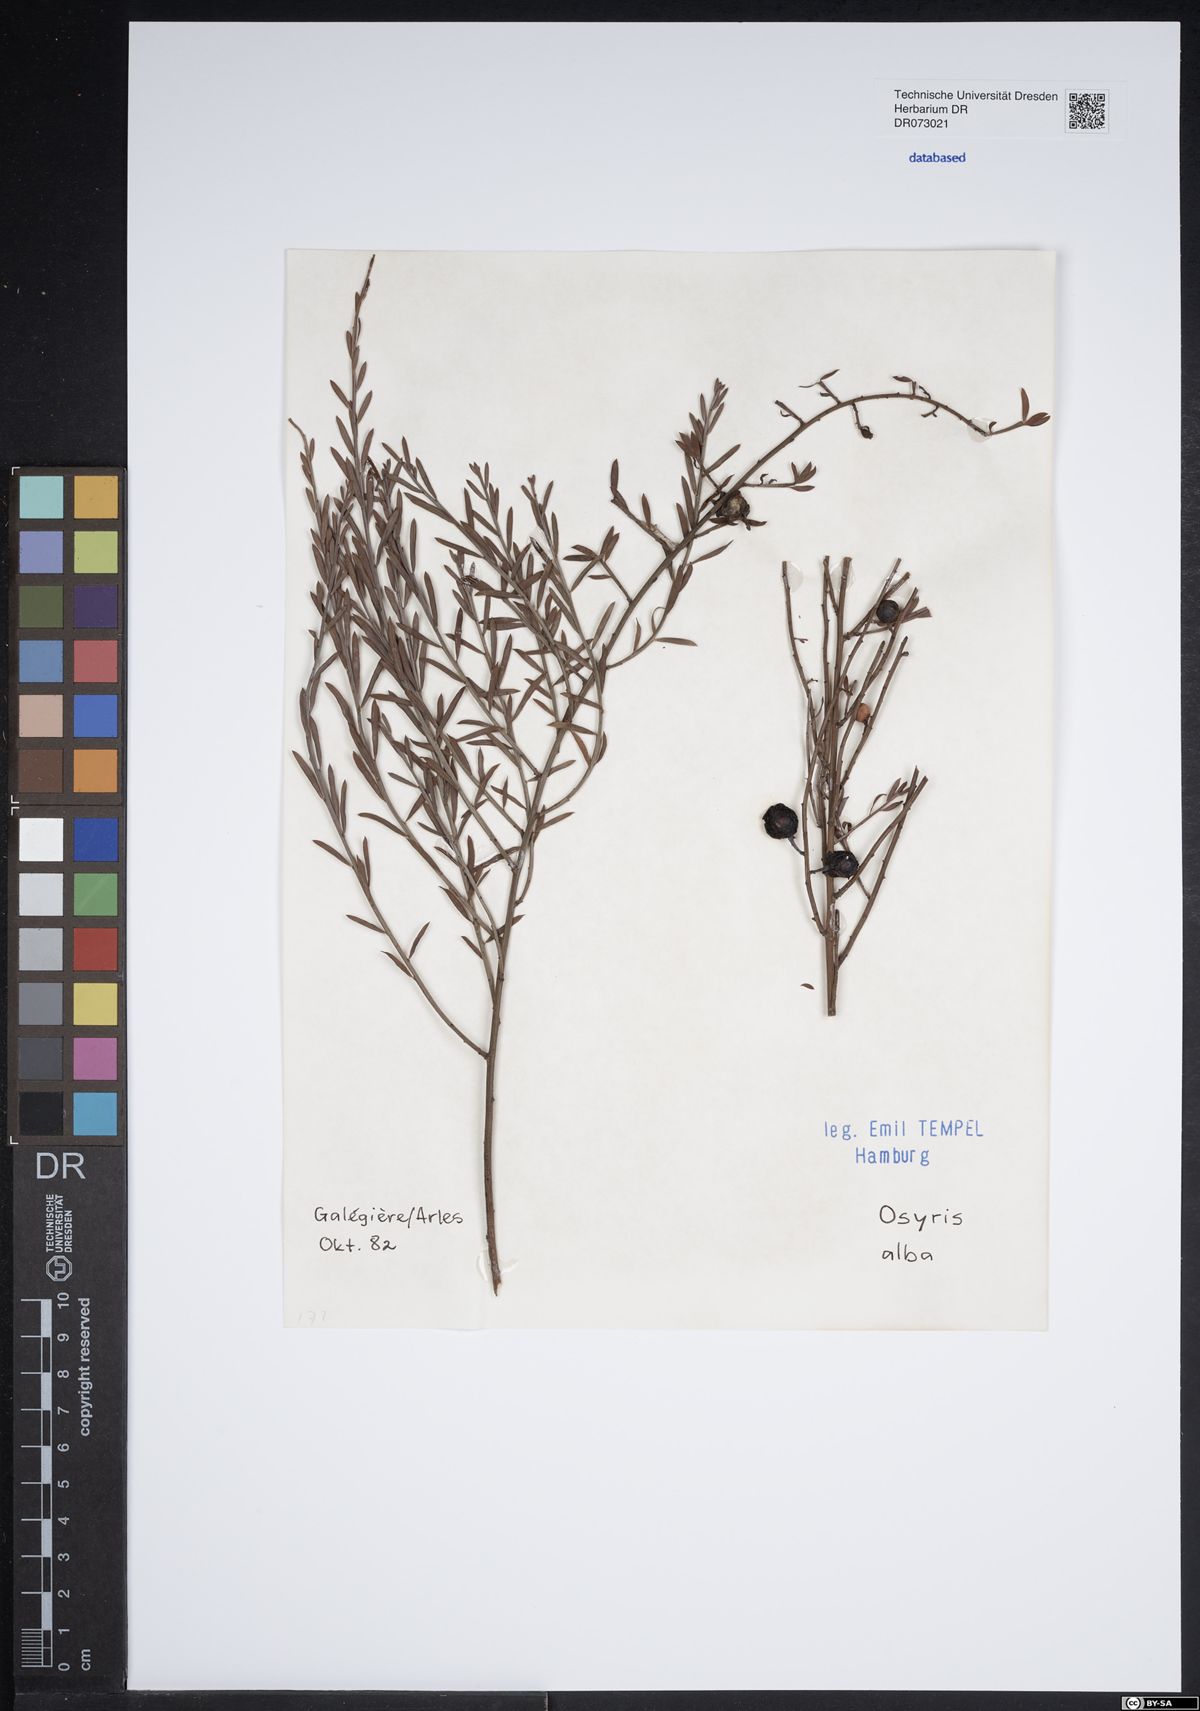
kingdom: Plantae
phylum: Tracheophyta
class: Magnoliopsida
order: Santalales
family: Santalaceae
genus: Osyris
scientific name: Osyris alba
